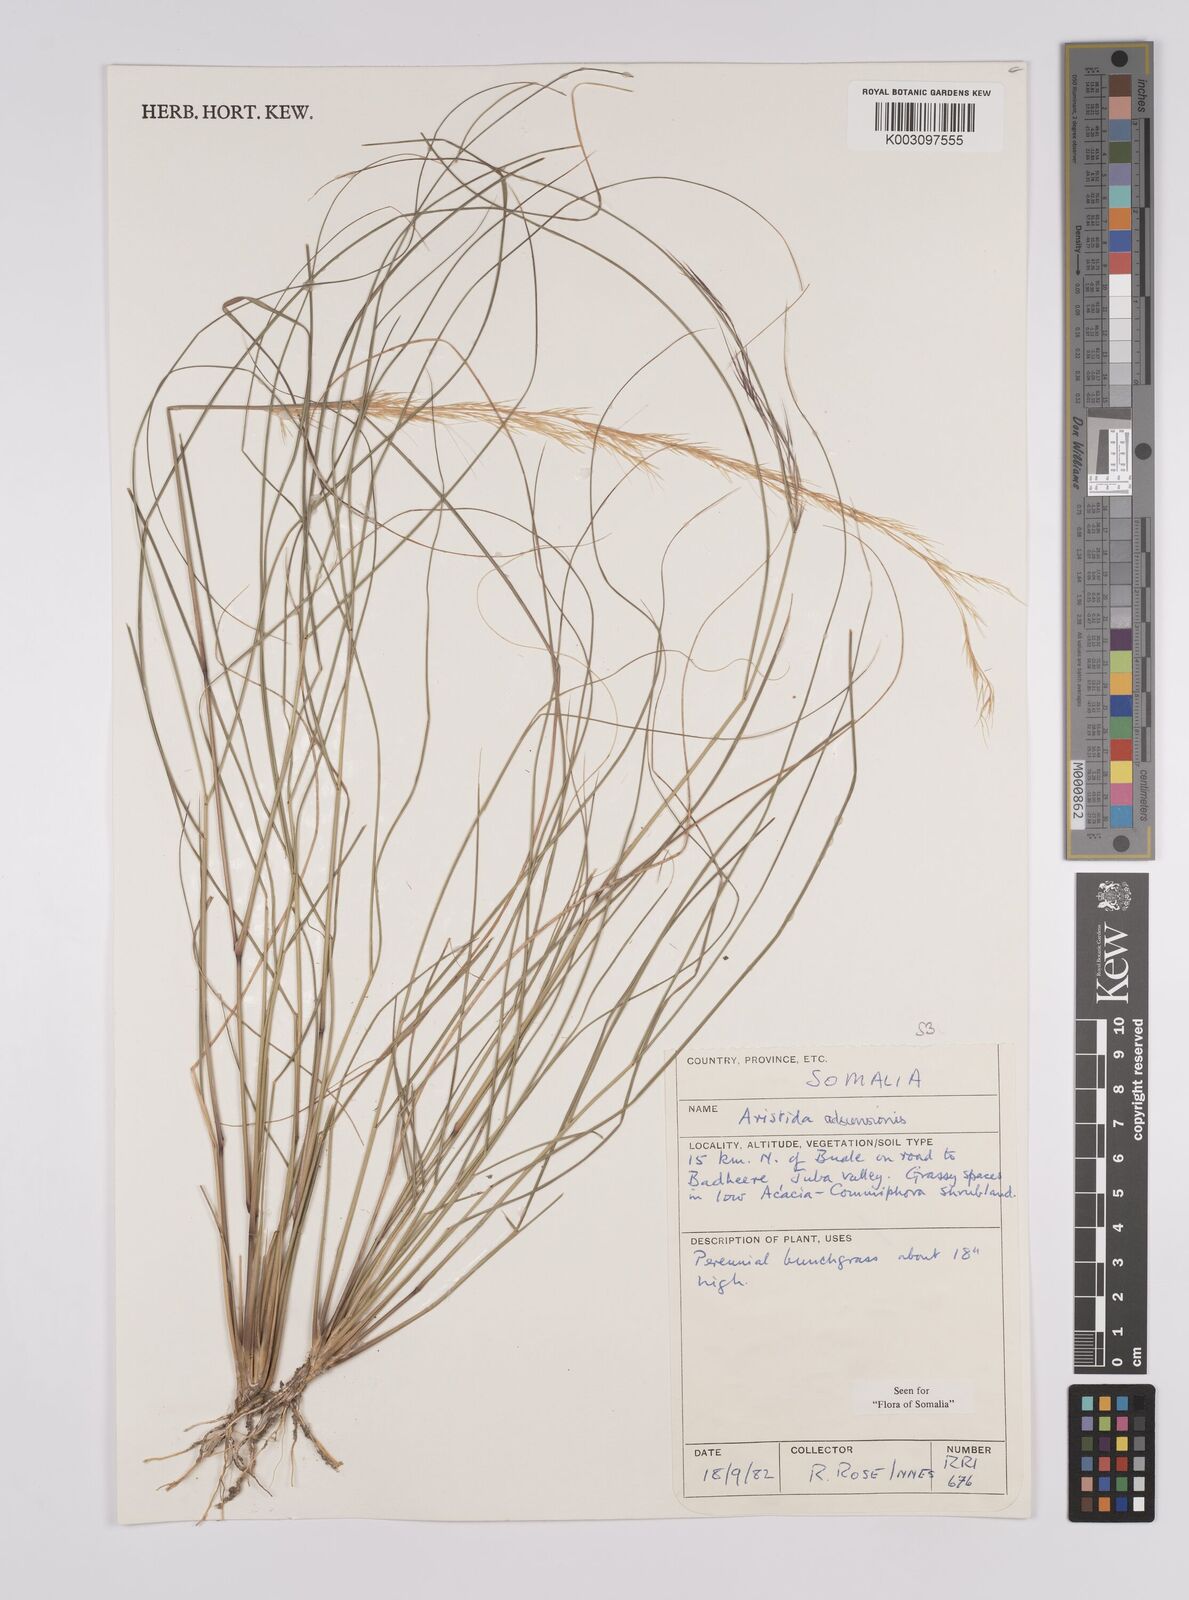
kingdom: Plantae
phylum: Tracheophyta
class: Liliopsida
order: Poales
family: Poaceae
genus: Aristida
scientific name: Aristida adscensionis
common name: Sixweeks threeawn
